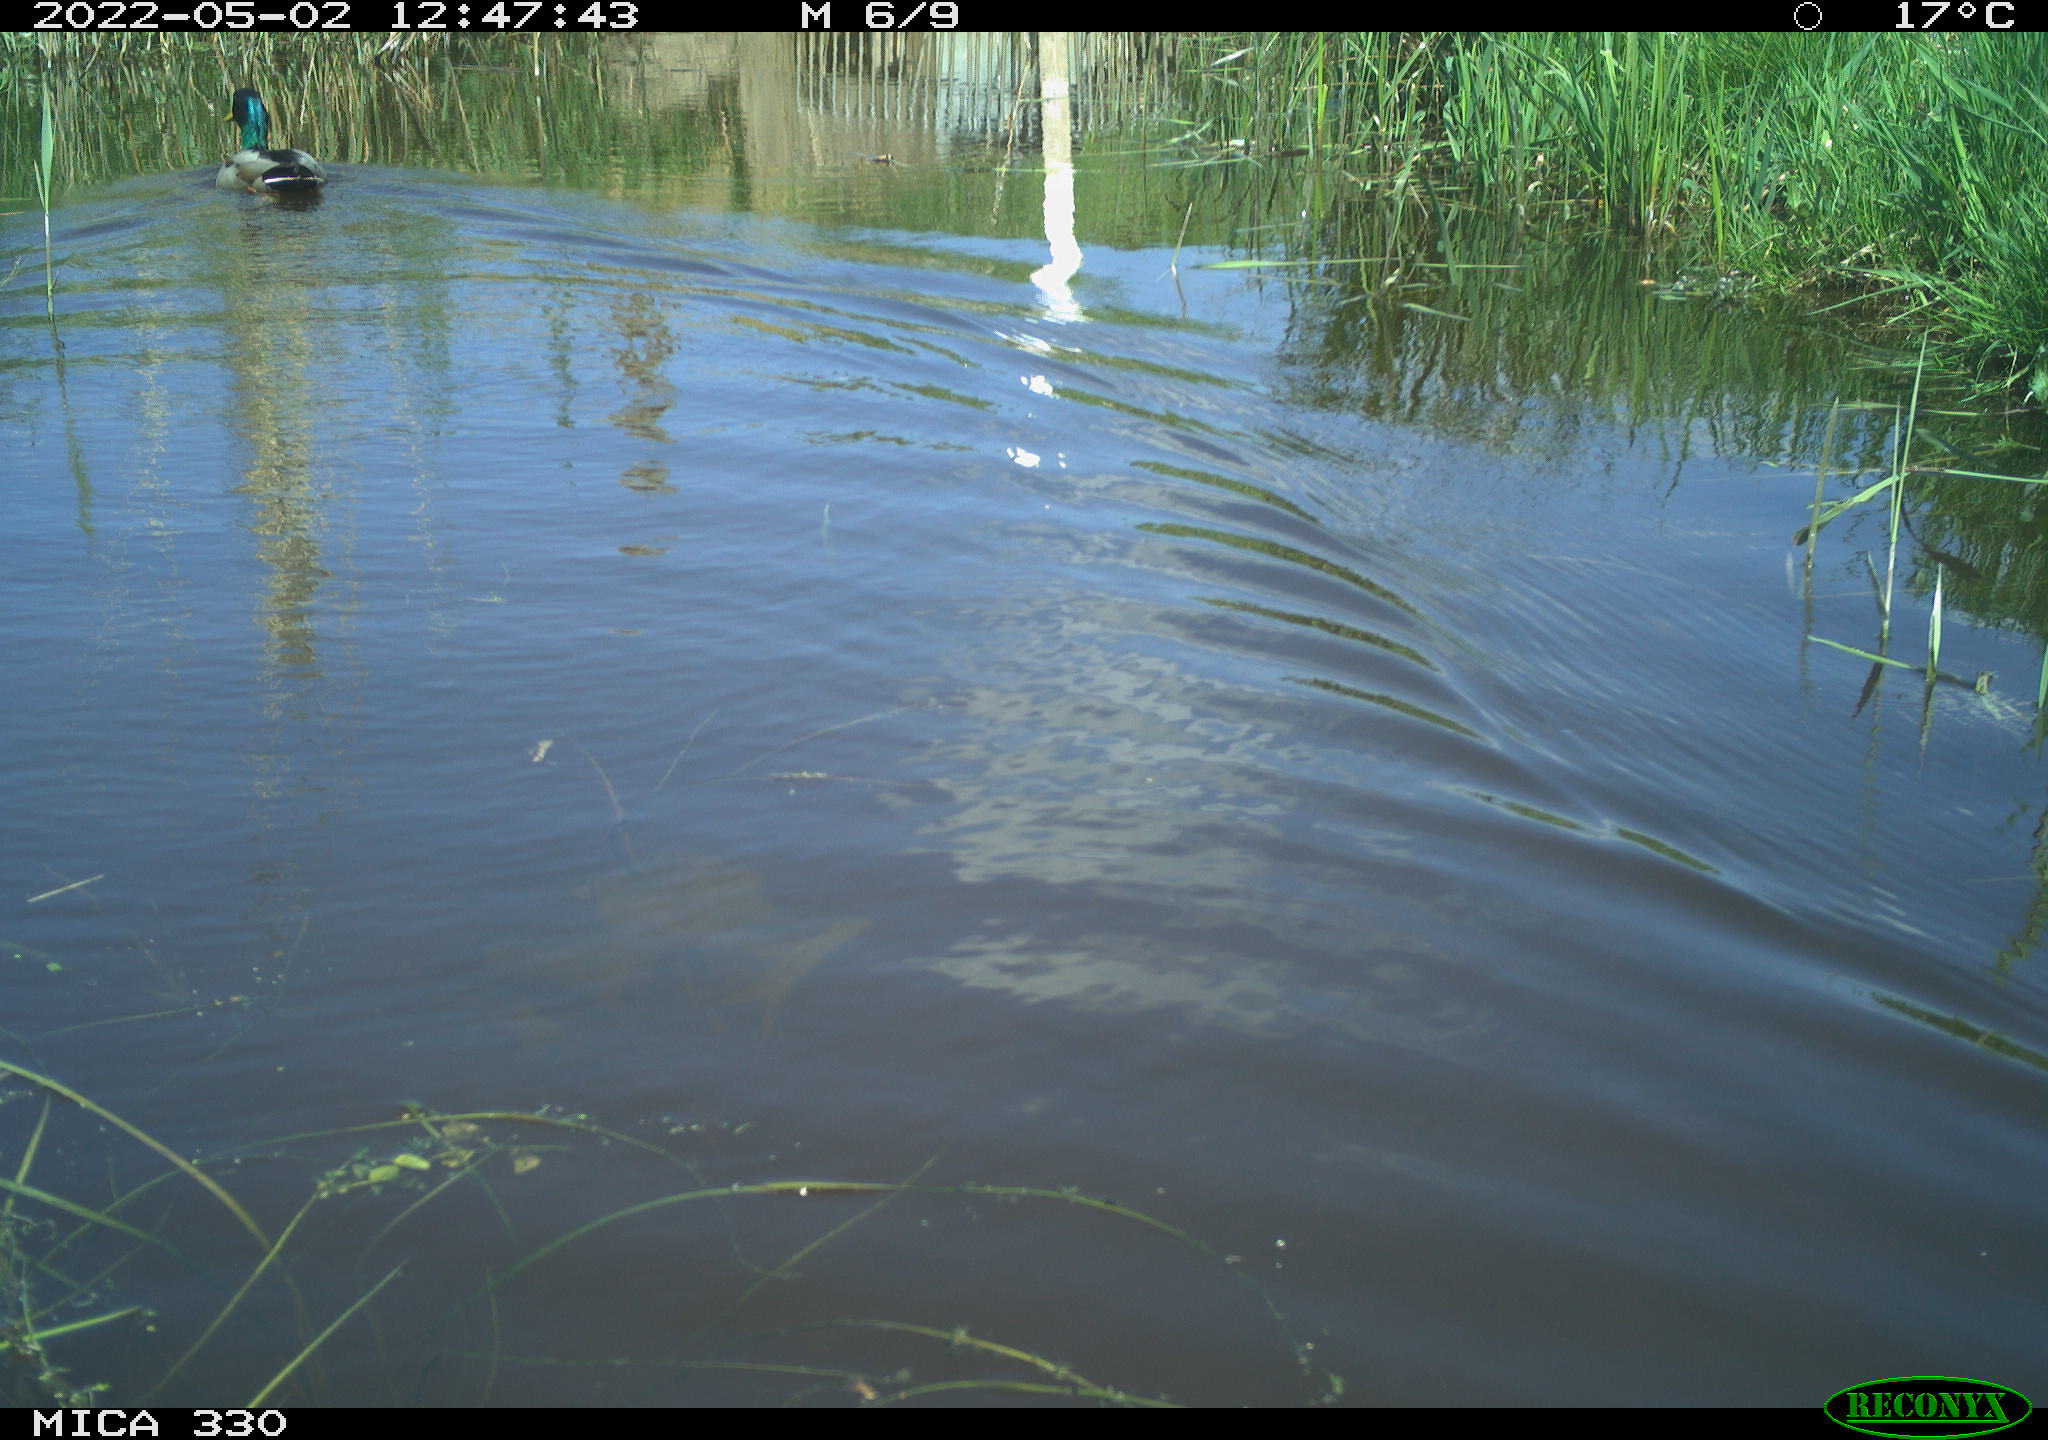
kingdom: Animalia
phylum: Chordata
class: Aves
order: Anseriformes
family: Anatidae
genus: Anas
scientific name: Anas platyrhynchos
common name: Mallard
